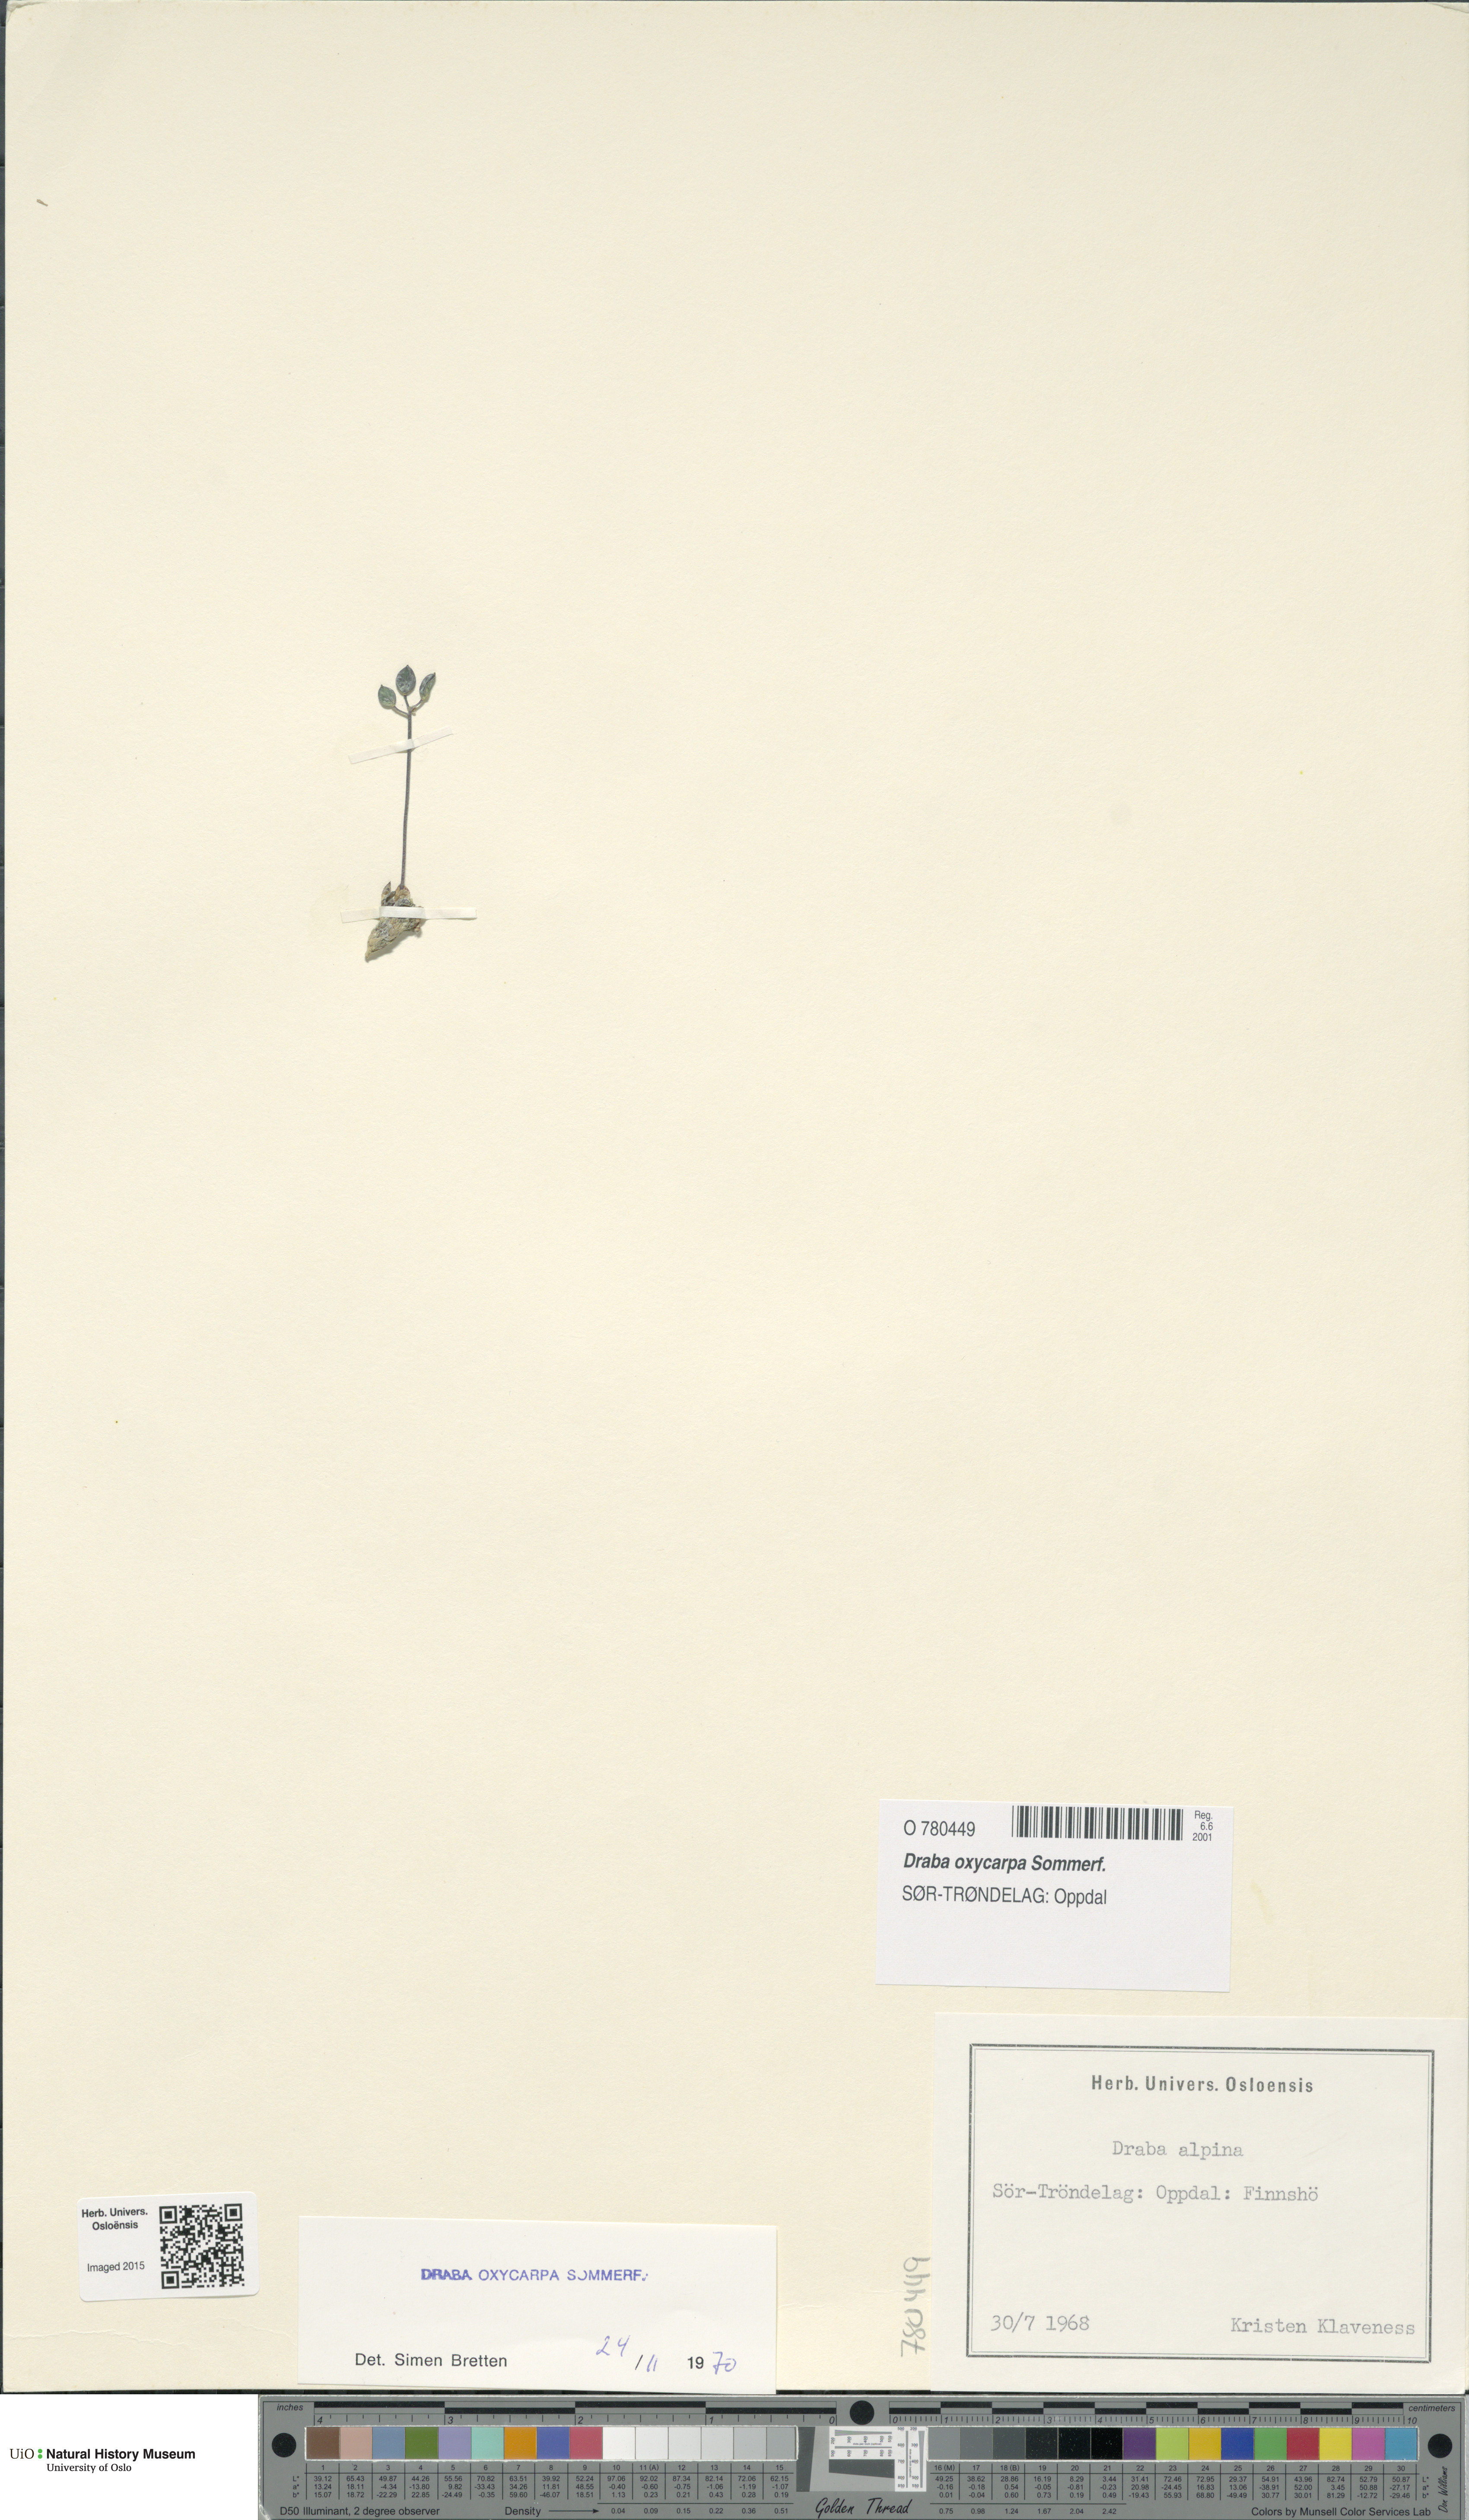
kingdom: Plantae
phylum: Tracheophyta
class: Magnoliopsida
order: Brassicales
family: Brassicaceae
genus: Draba
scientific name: Draba oxycarpa
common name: Sharp-fruited whitlow-grass
